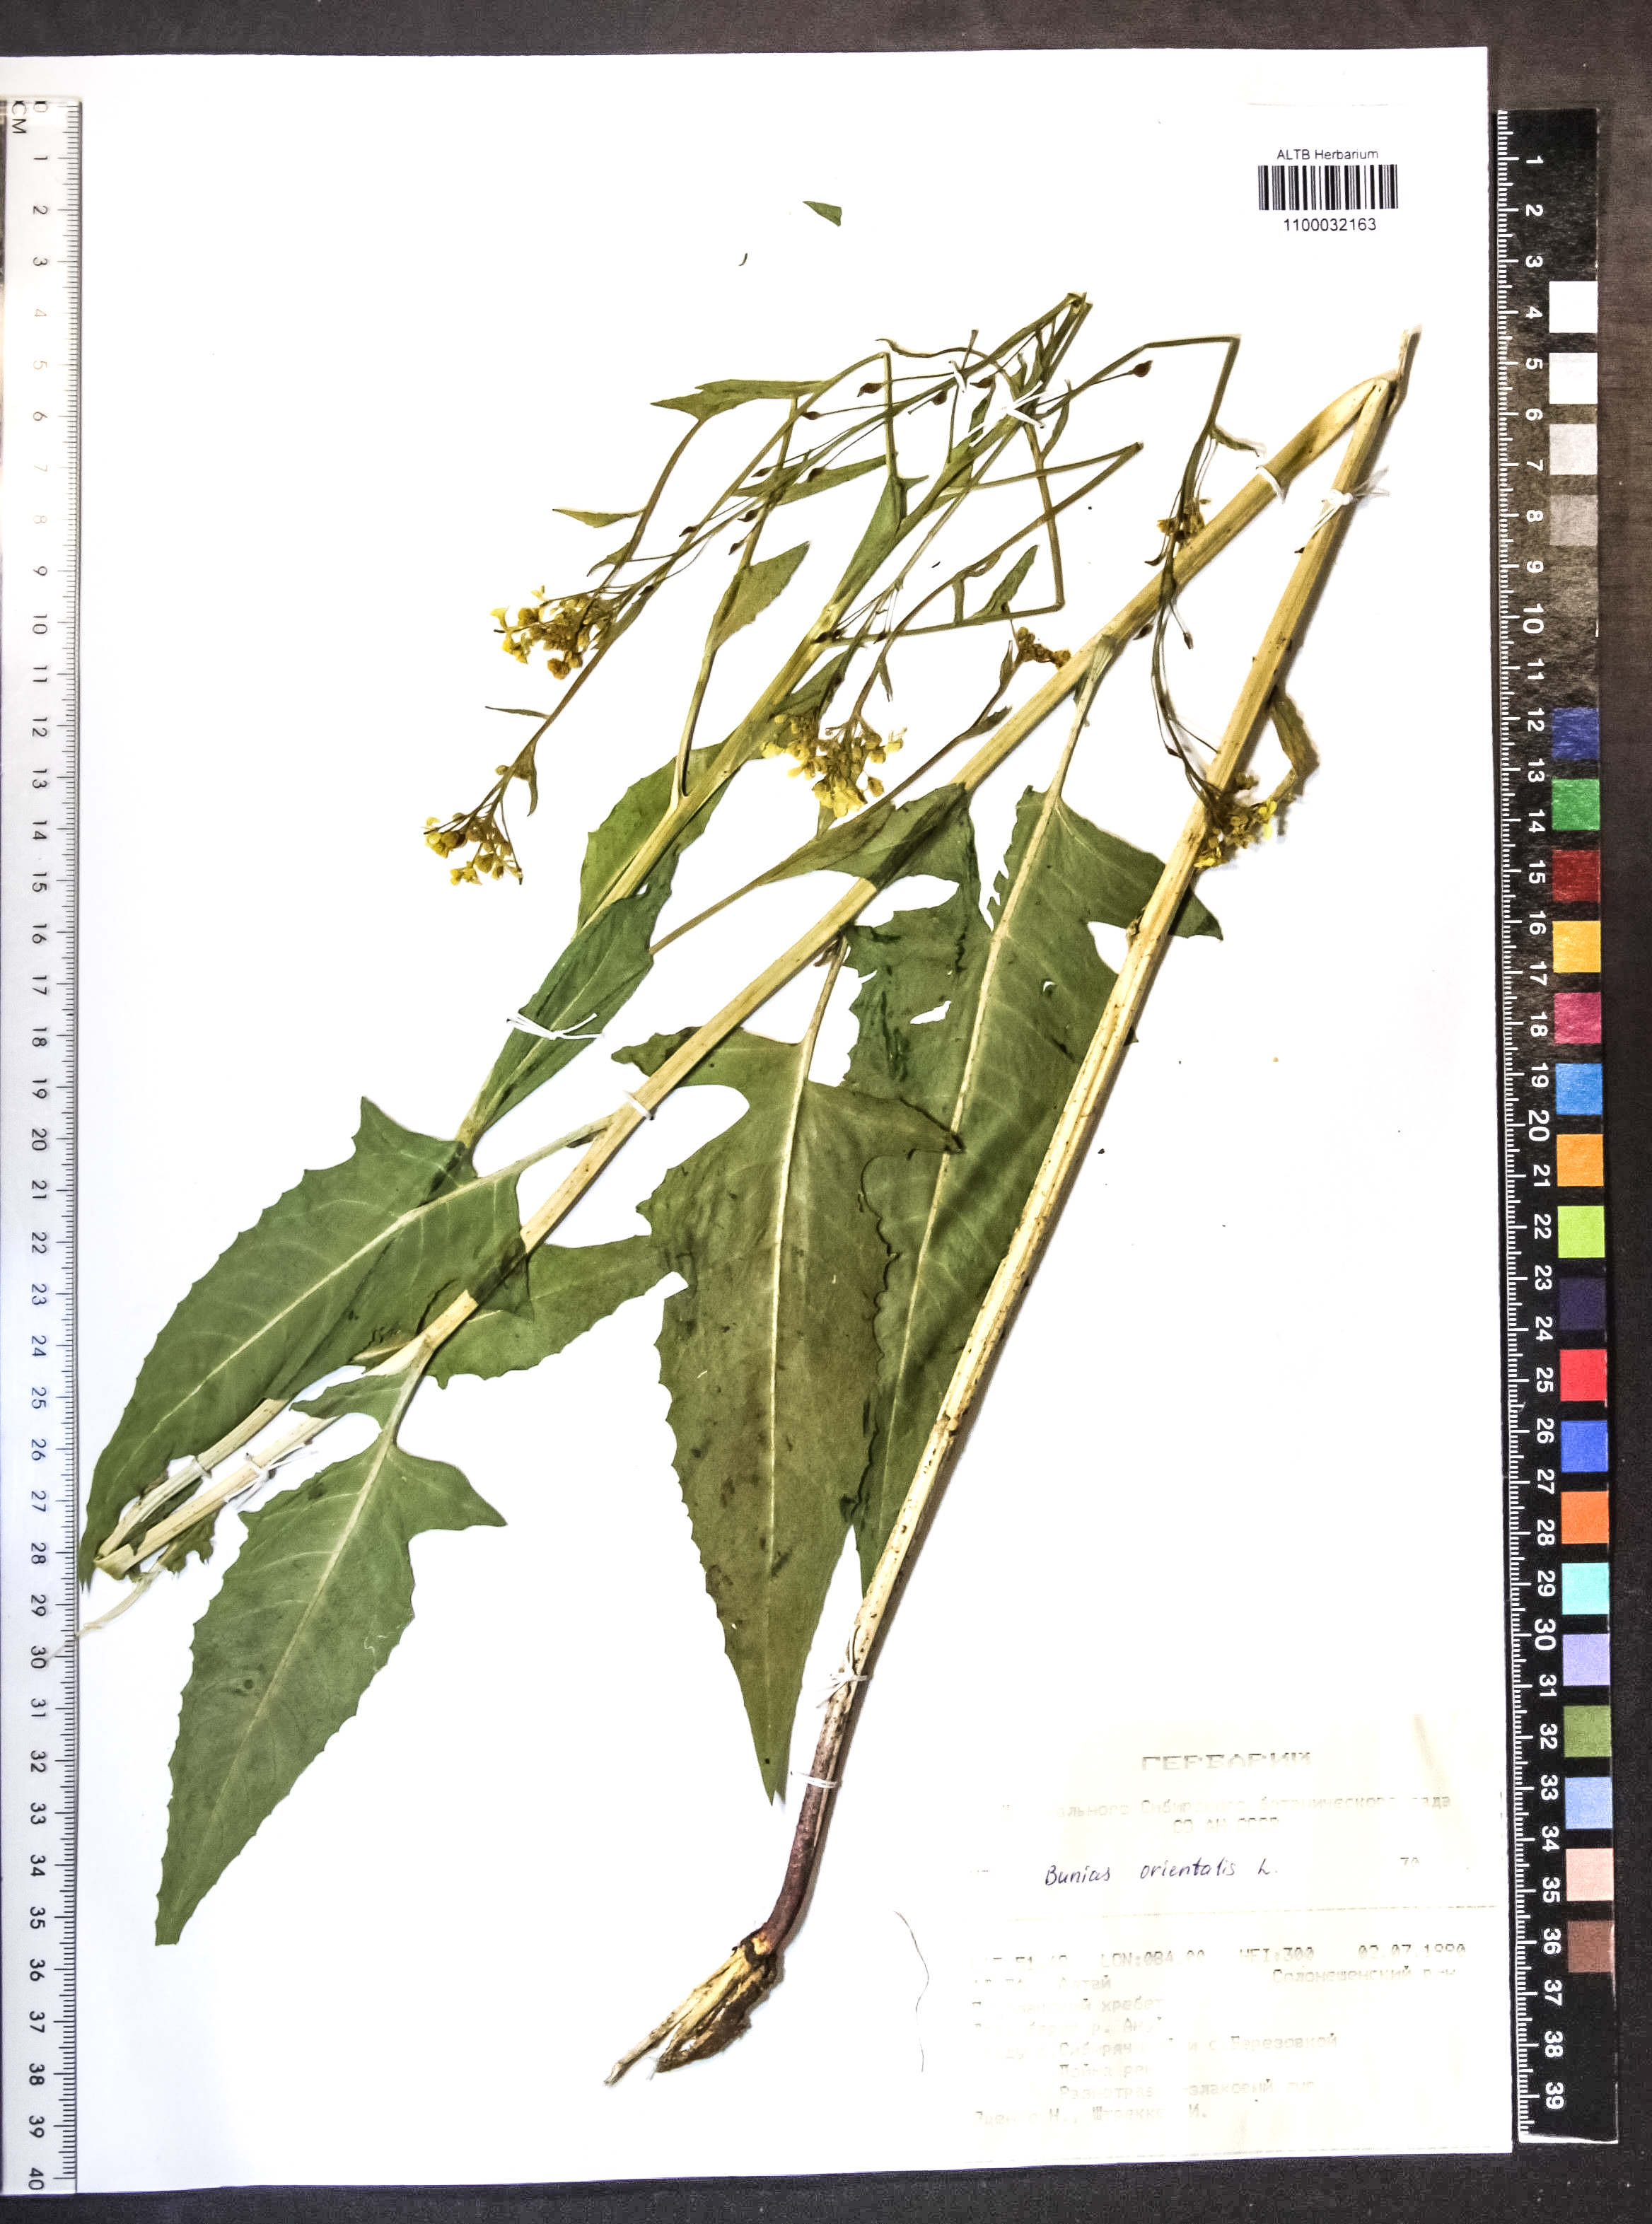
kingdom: Plantae
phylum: Tracheophyta
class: Magnoliopsida
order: Brassicales
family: Brassicaceae
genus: Bunias
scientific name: Bunias orientalis
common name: Warty-cabbage
